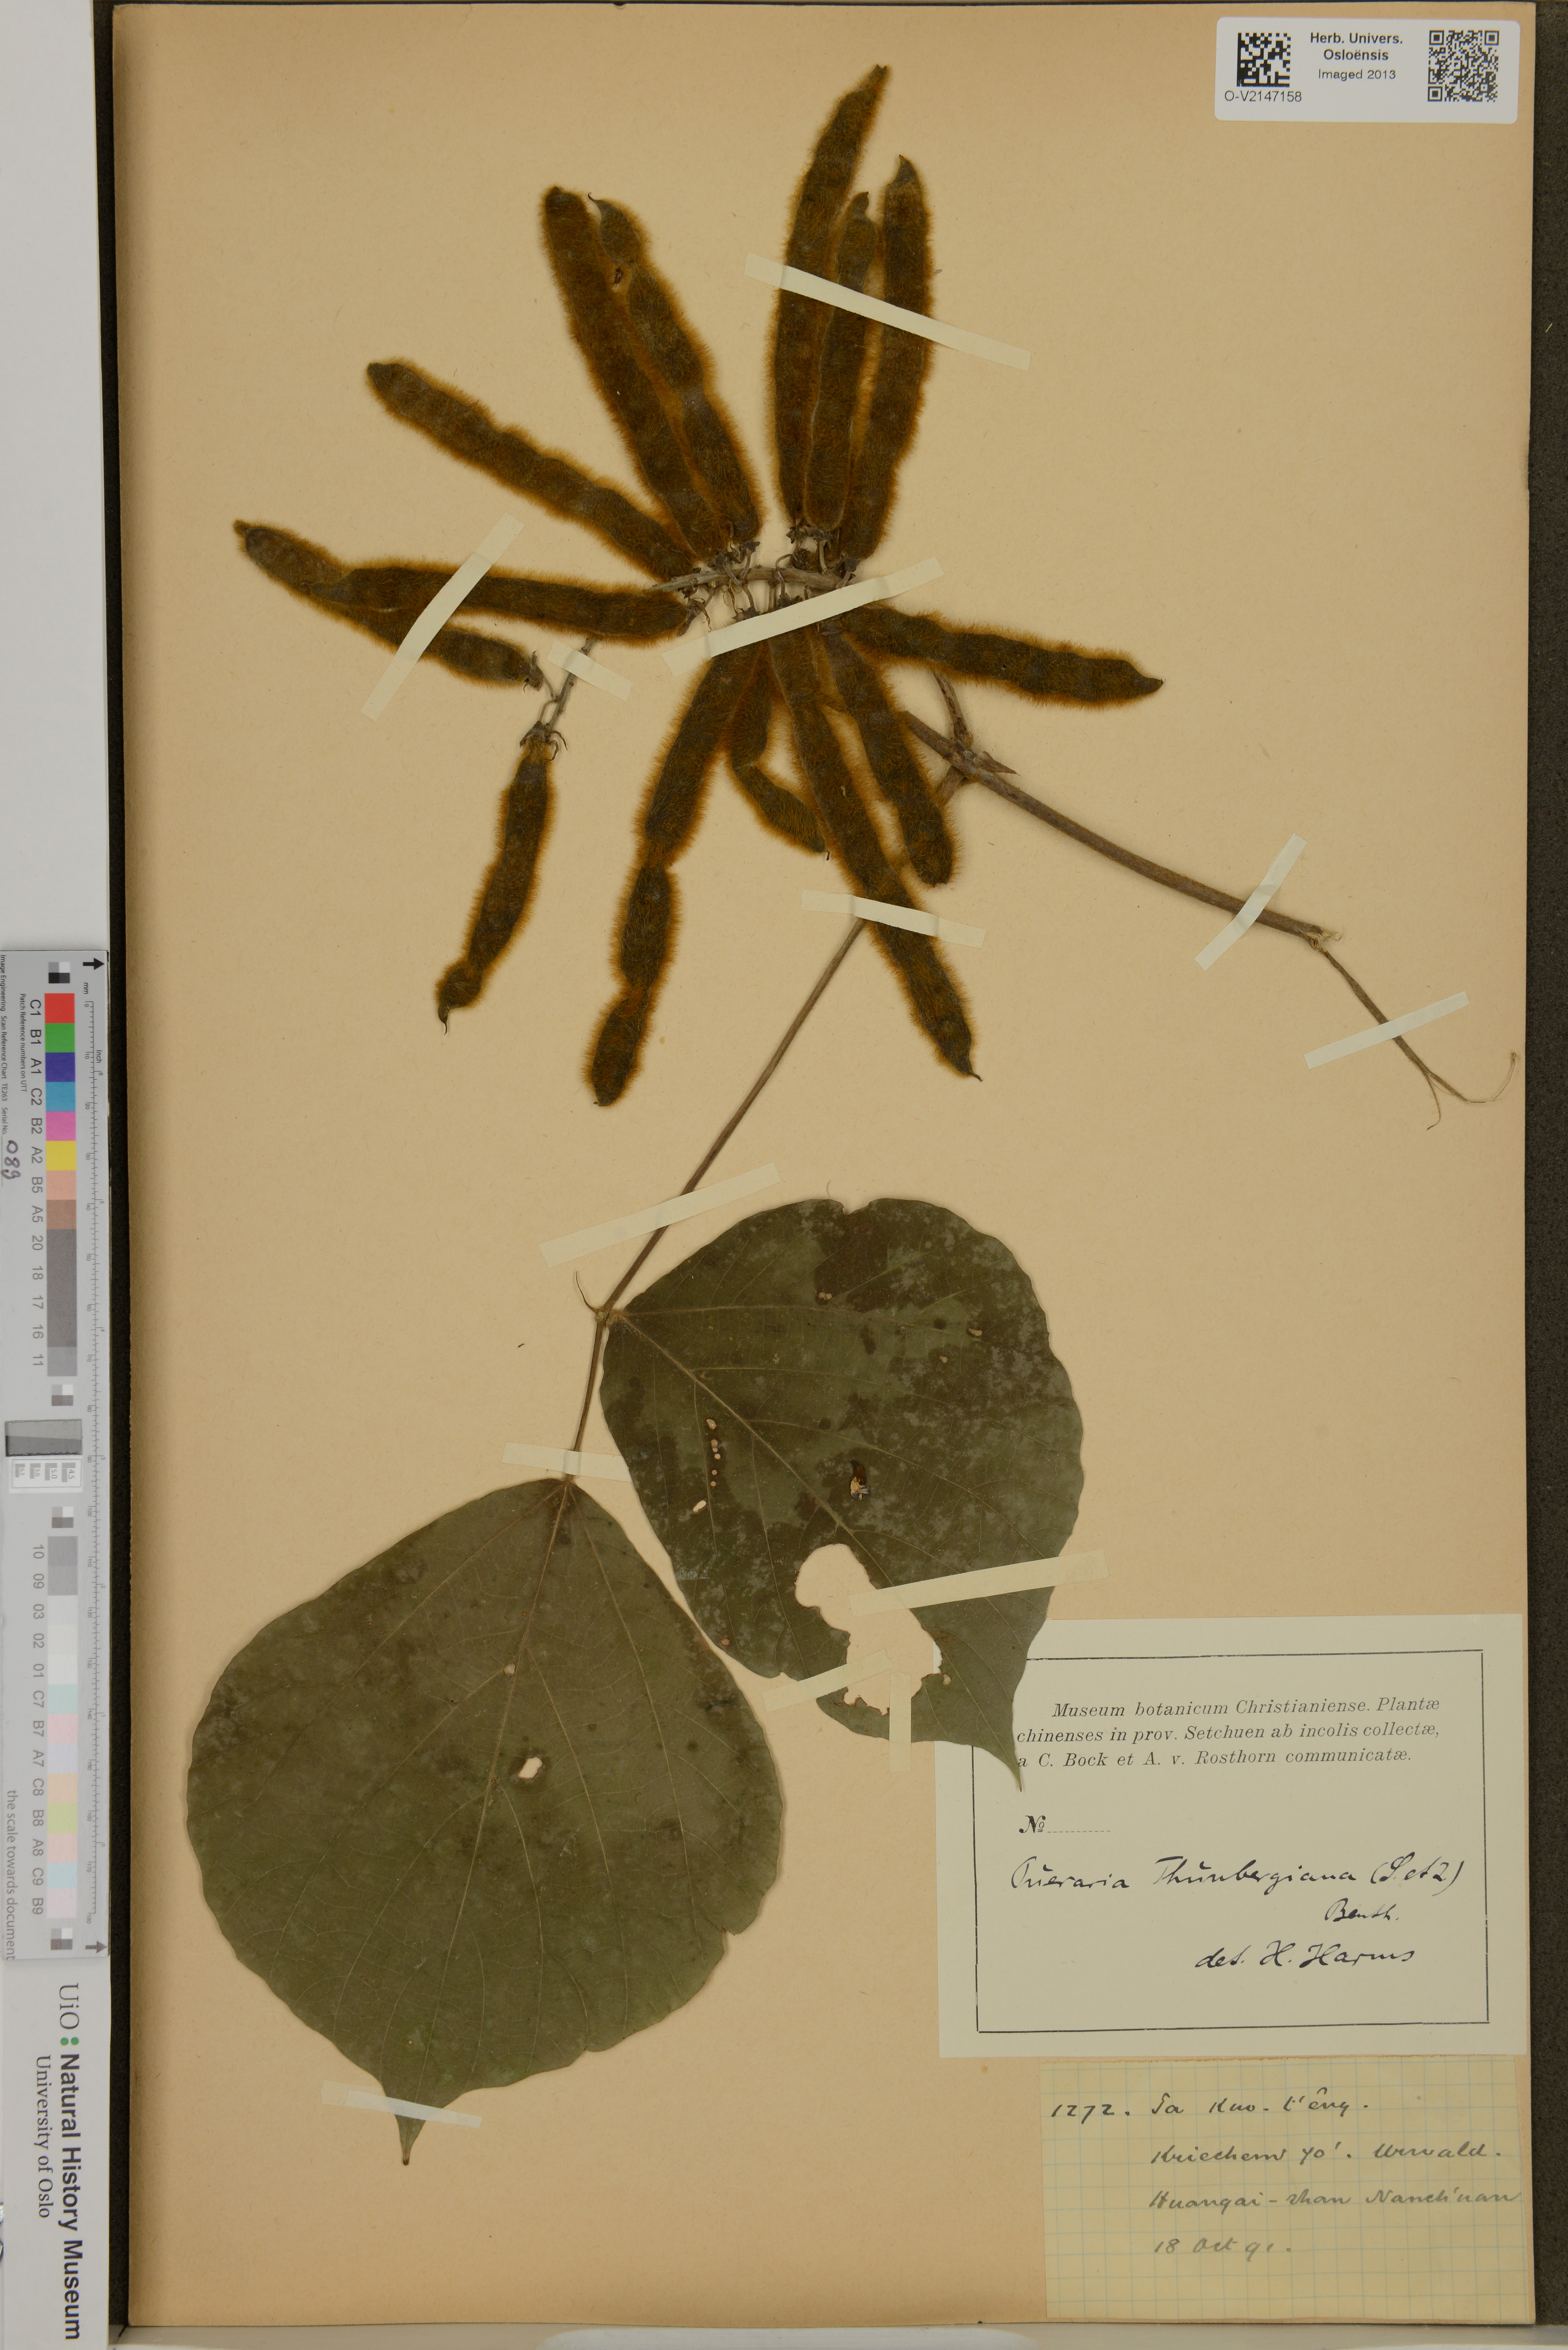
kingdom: Plantae
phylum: Tracheophyta
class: Magnoliopsida
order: Fabales
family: Fabaceae
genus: Pueraria
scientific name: Pueraria montana
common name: Kudzu
